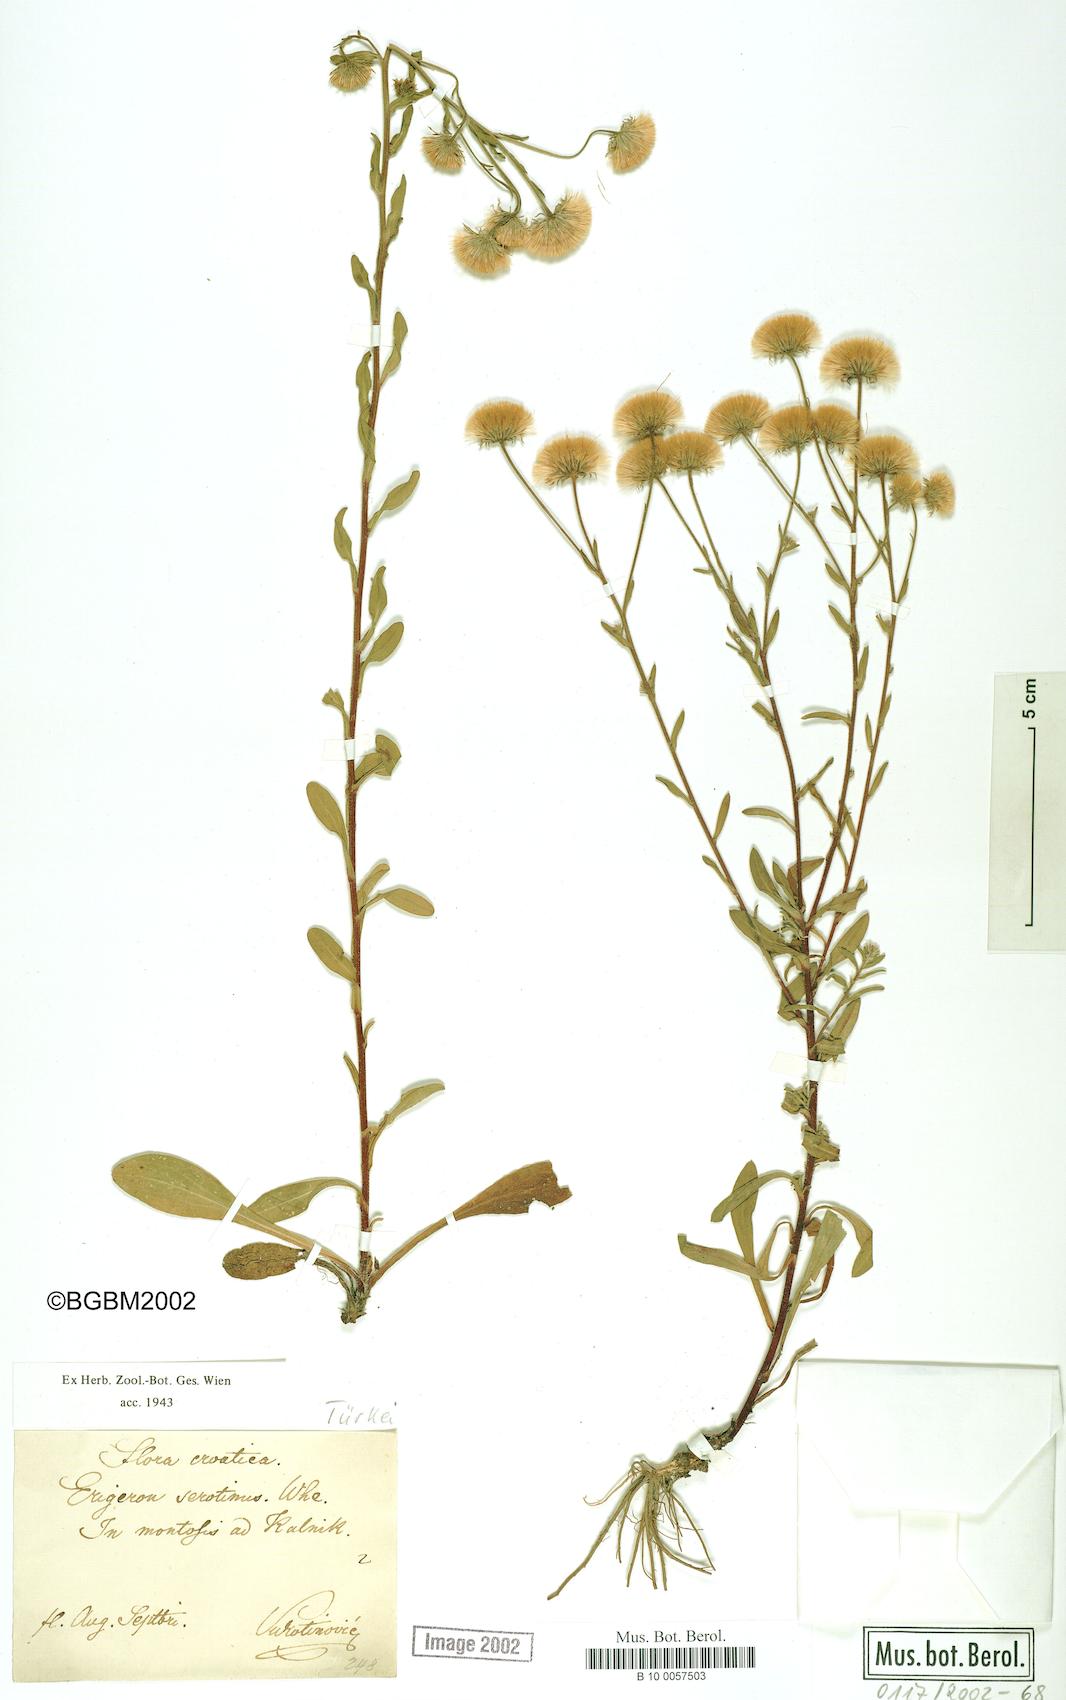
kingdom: Plantae
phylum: Tracheophyta
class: Magnoliopsida
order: Asterales
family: Asteraceae
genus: Erigeron
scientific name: Erigeron muralis
